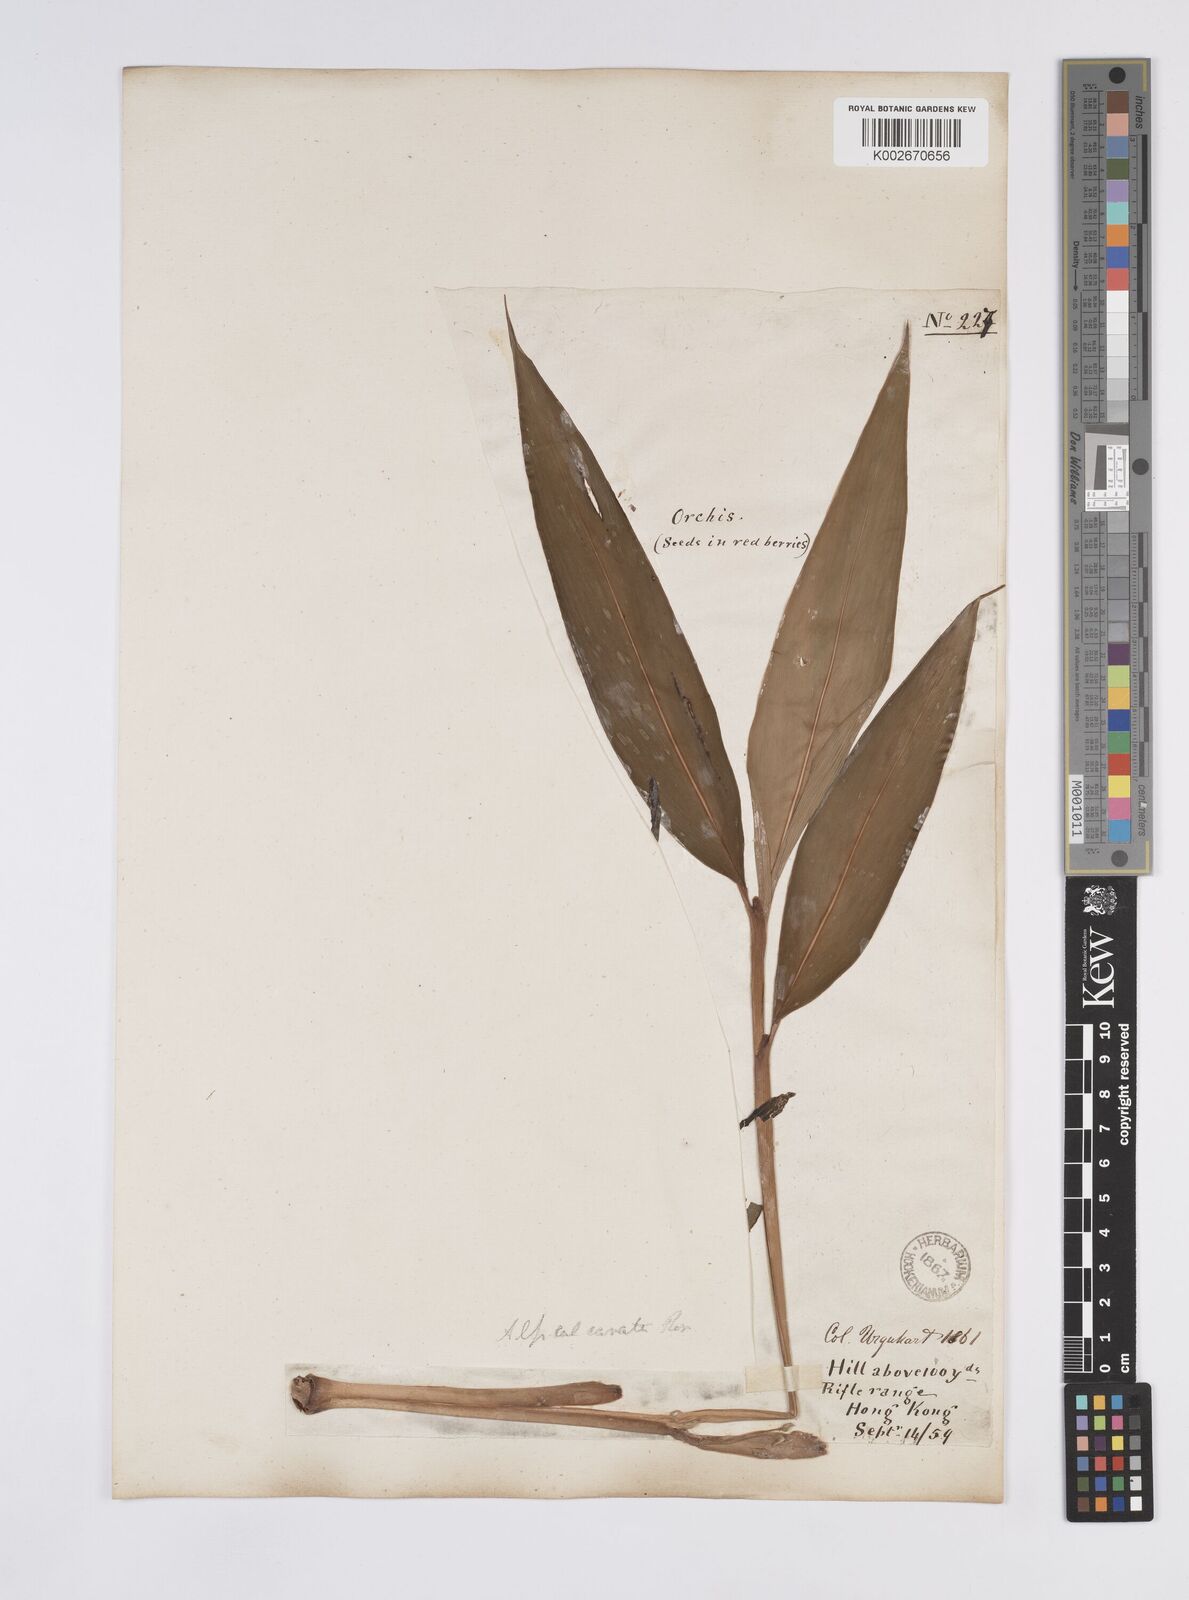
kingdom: Plantae
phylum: Tracheophyta
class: Liliopsida
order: Zingiberales
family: Zingiberaceae
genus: Alpinia
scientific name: Alpinia
